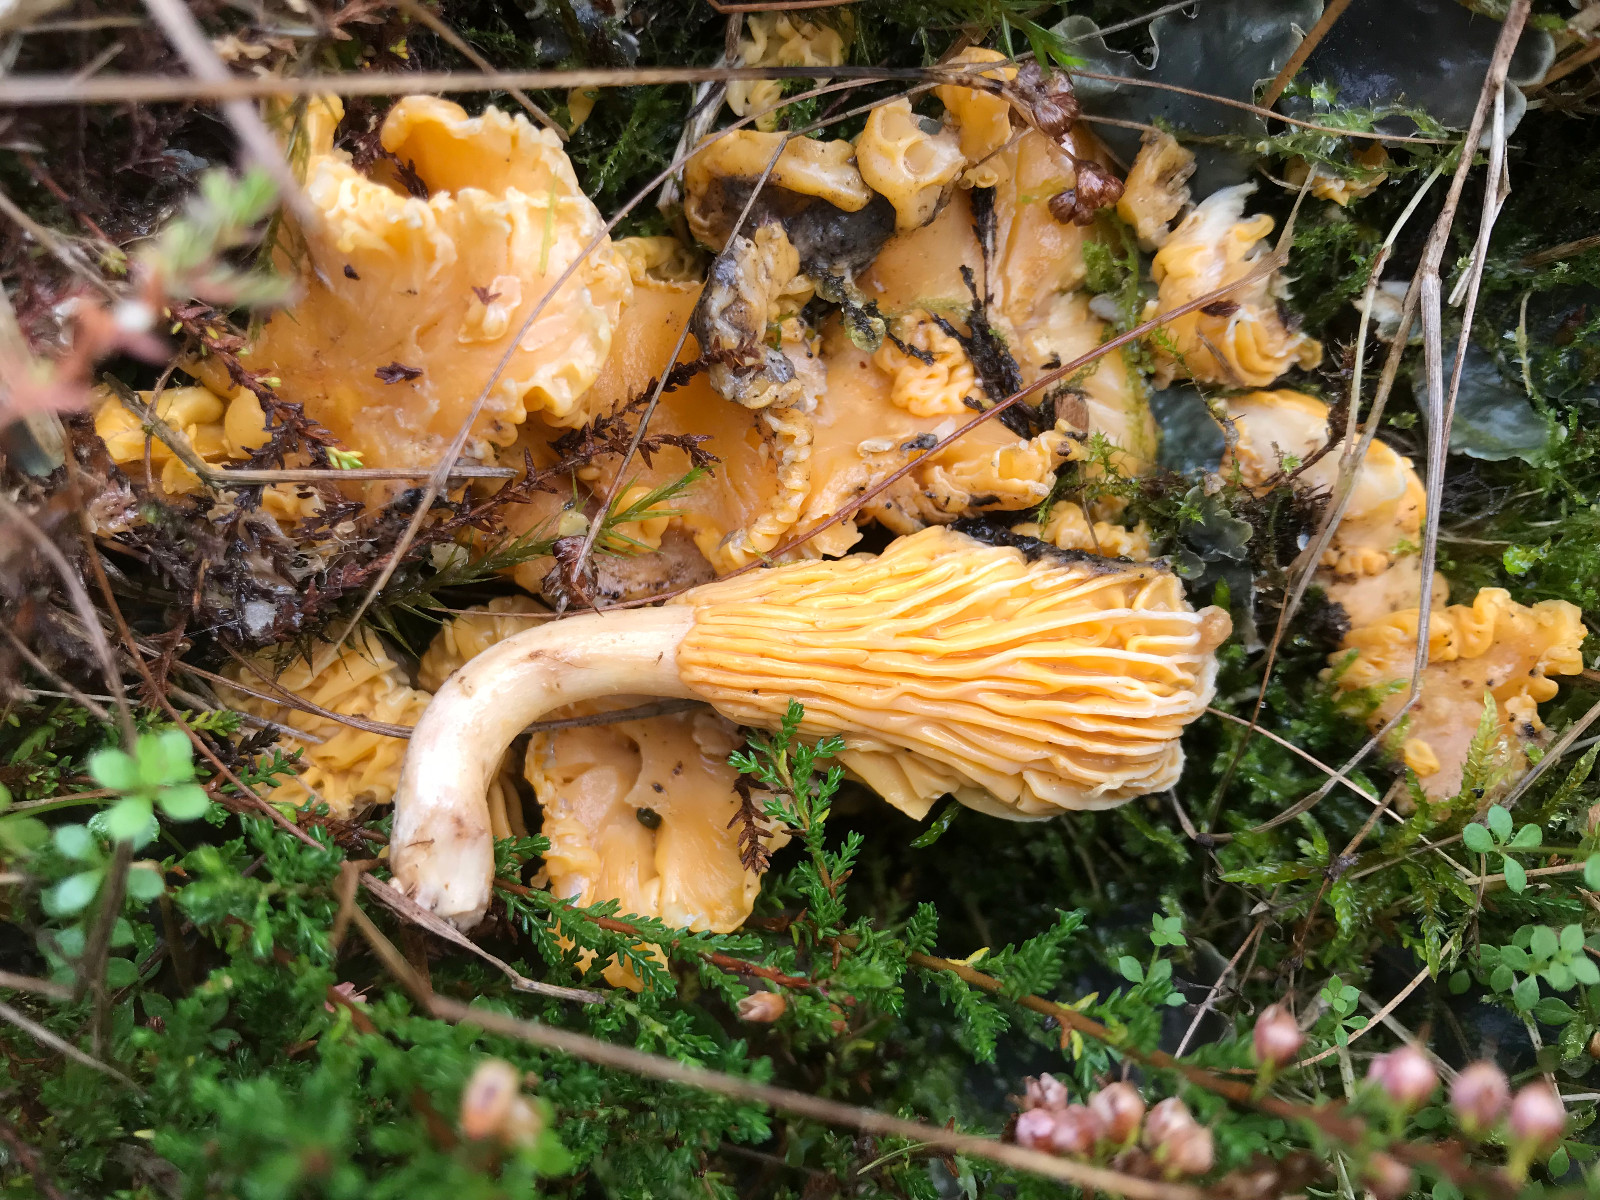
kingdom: Fungi
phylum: Basidiomycota
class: Agaricomycetes
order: Cantharellales
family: Hydnaceae
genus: Cantharellus
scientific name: Cantharellus cibarius
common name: almindelig kantarel
